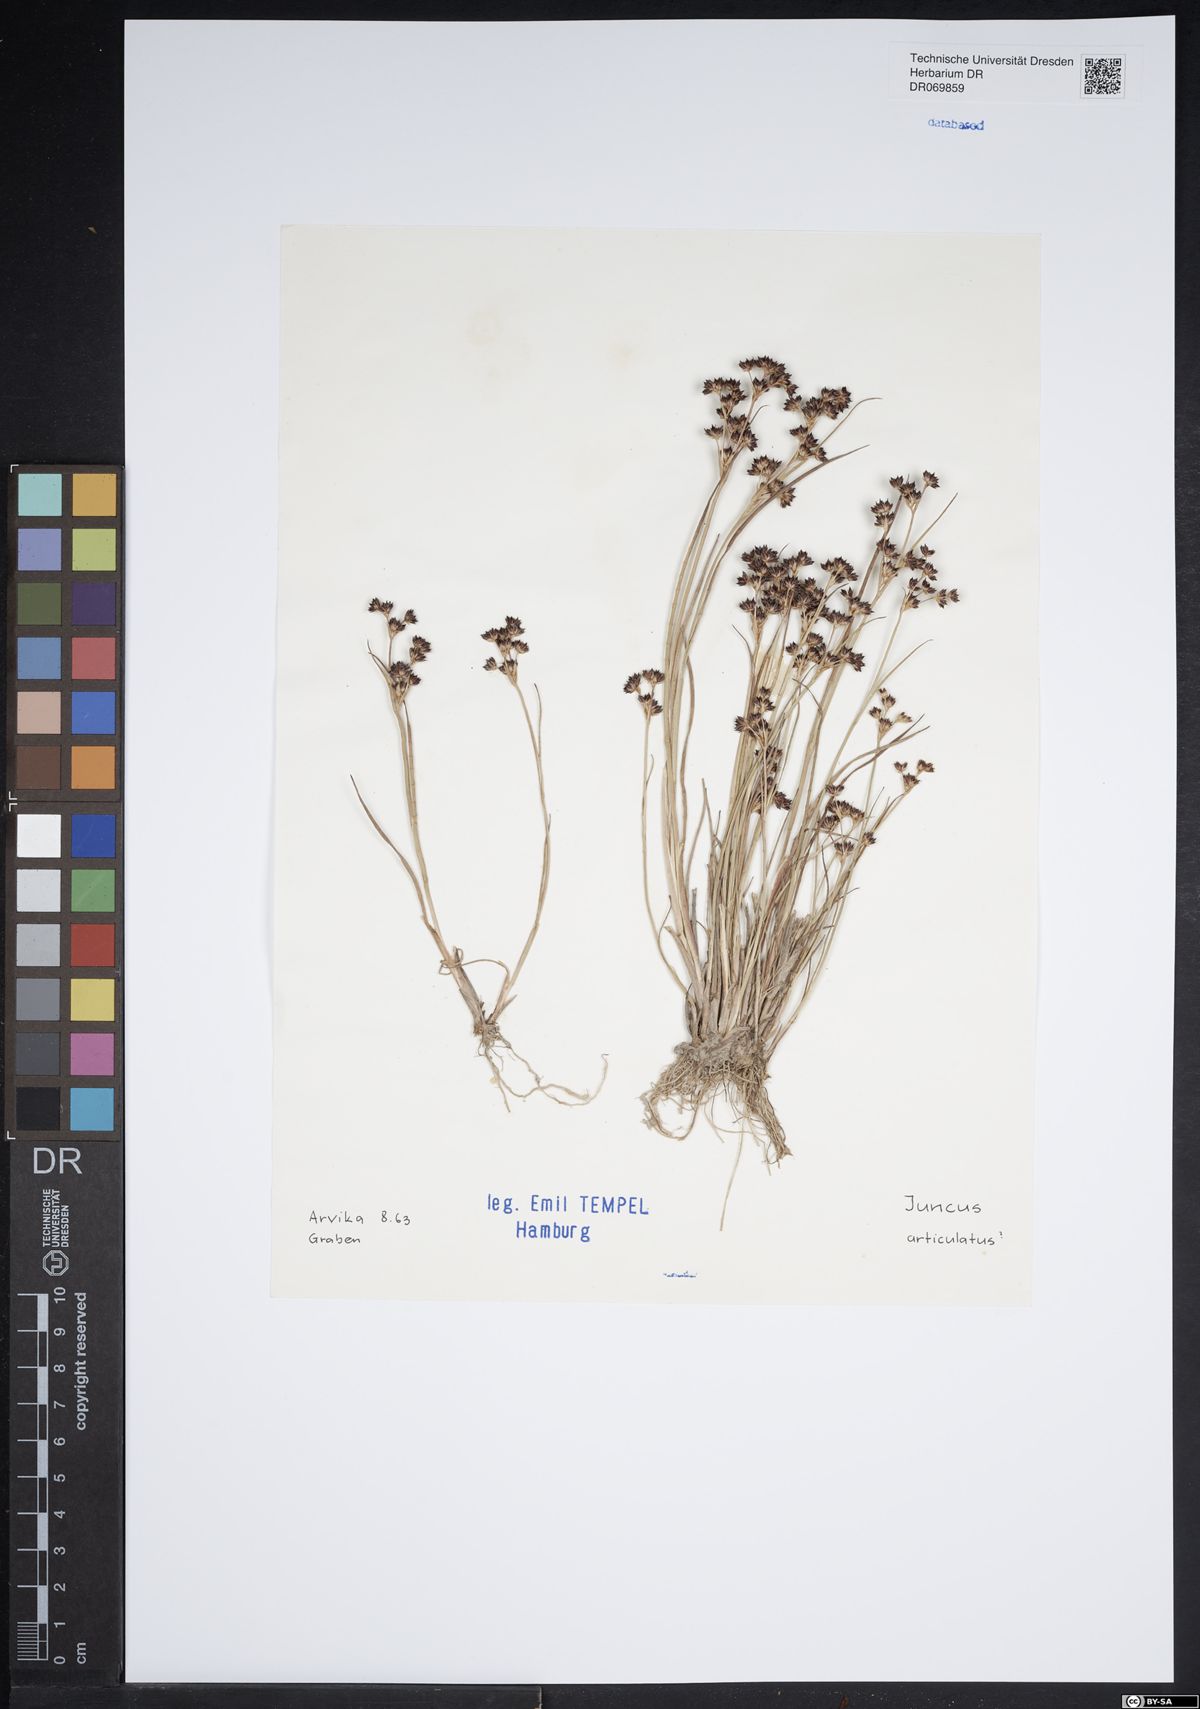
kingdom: Plantae
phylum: Tracheophyta
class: Liliopsida
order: Poales
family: Juncaceae
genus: Juncus
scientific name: Juncus articulatus
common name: Jointed rush
